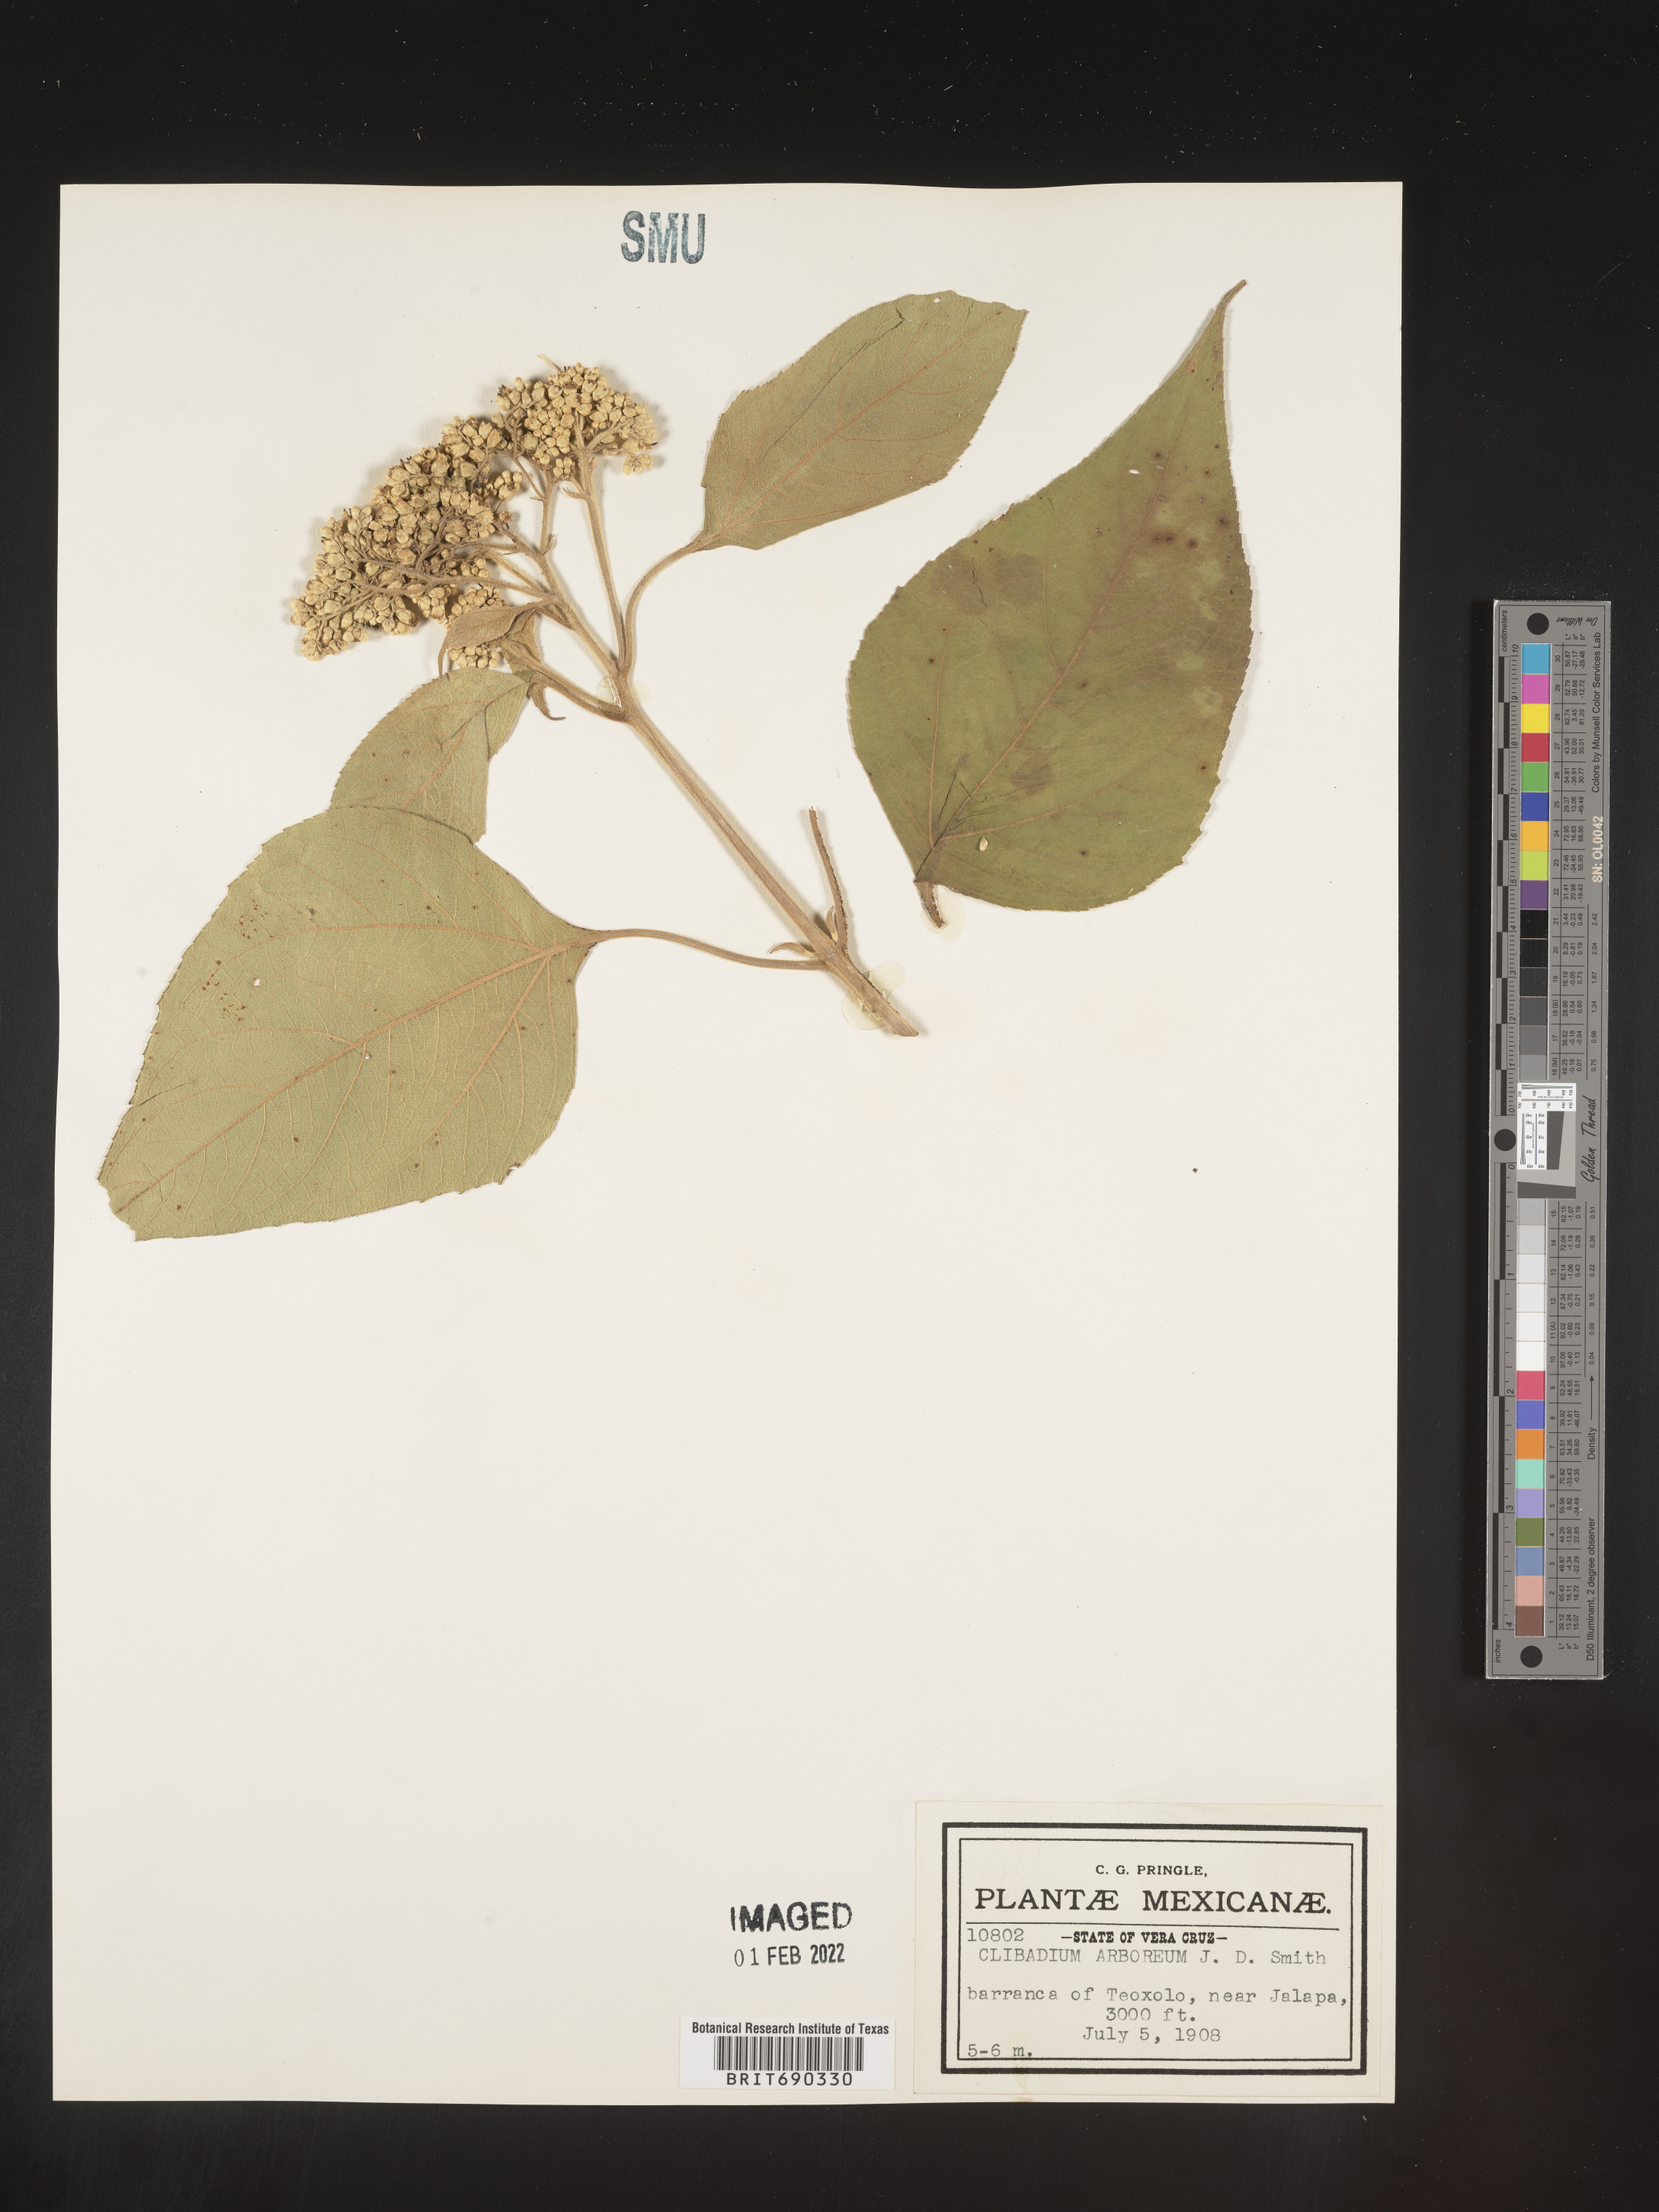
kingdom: Plantae
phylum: Tracheophyta
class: Magnoliopsida
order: Asterales
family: Asteraceae
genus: Clibadium
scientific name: Clibadium
